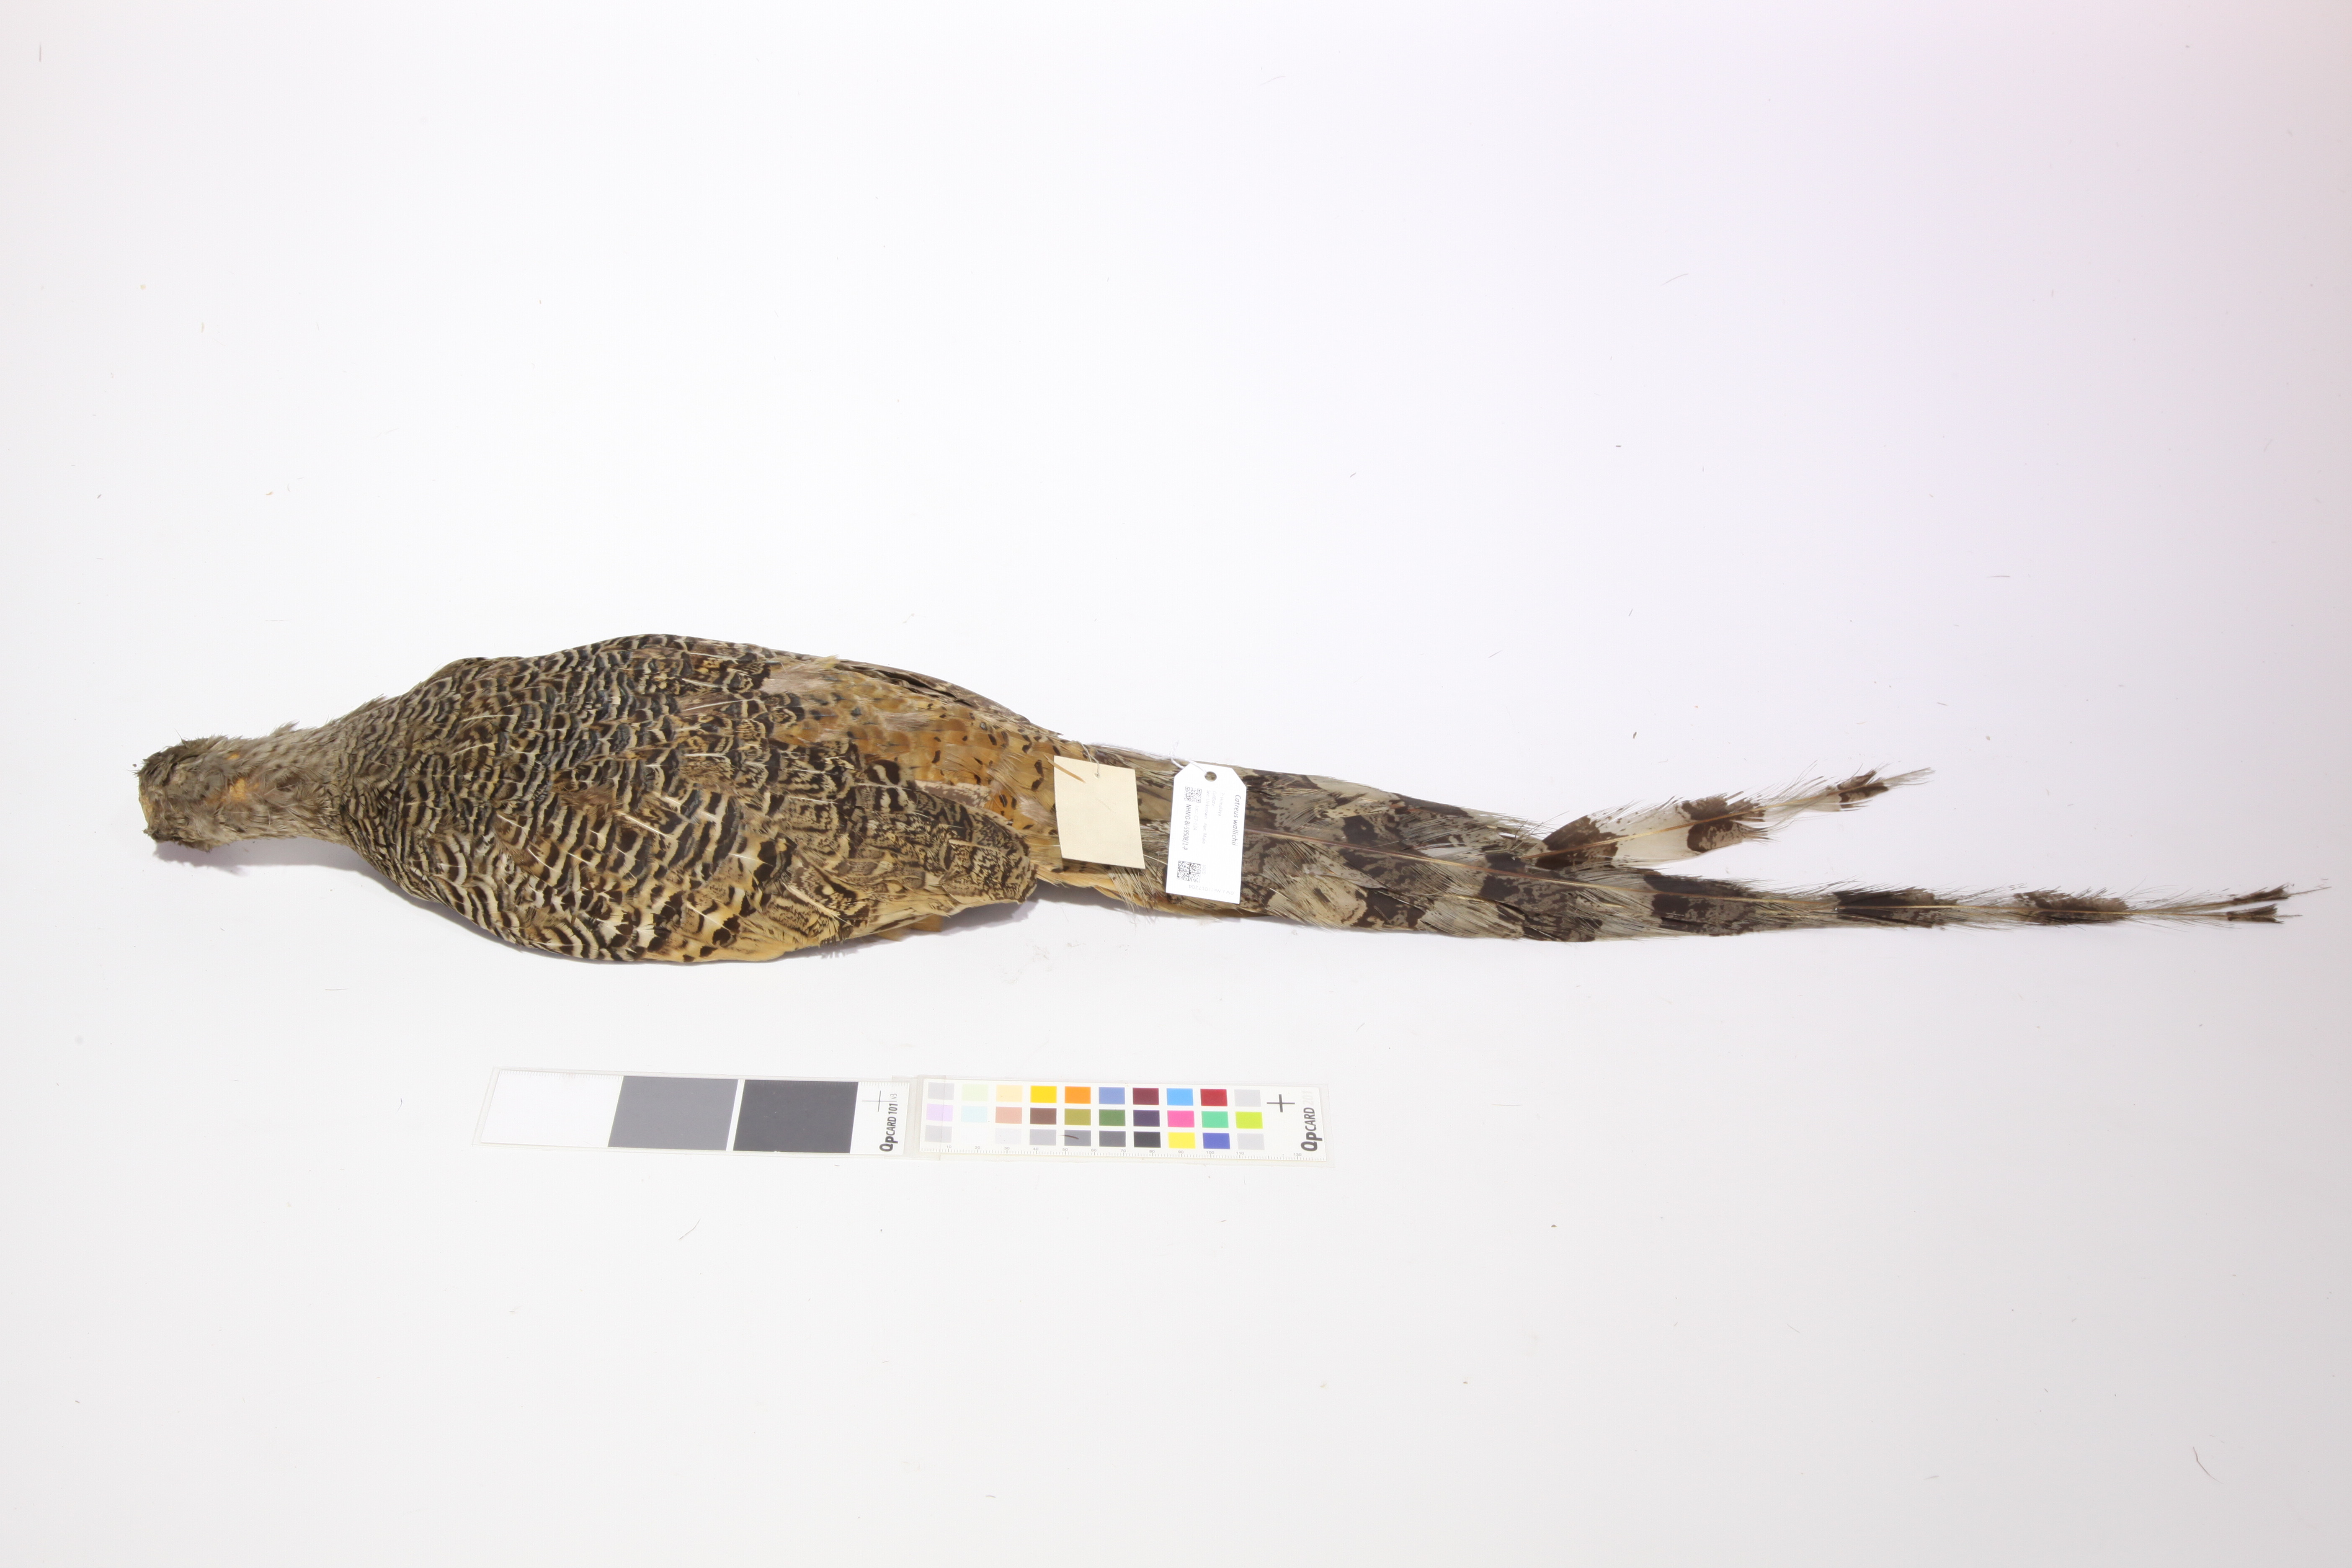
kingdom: Animalia
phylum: Chordata
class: Aves
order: Galliformes
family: Phasianidae
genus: Catreus
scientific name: Catreus wallichii
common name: Cheer pheasant
